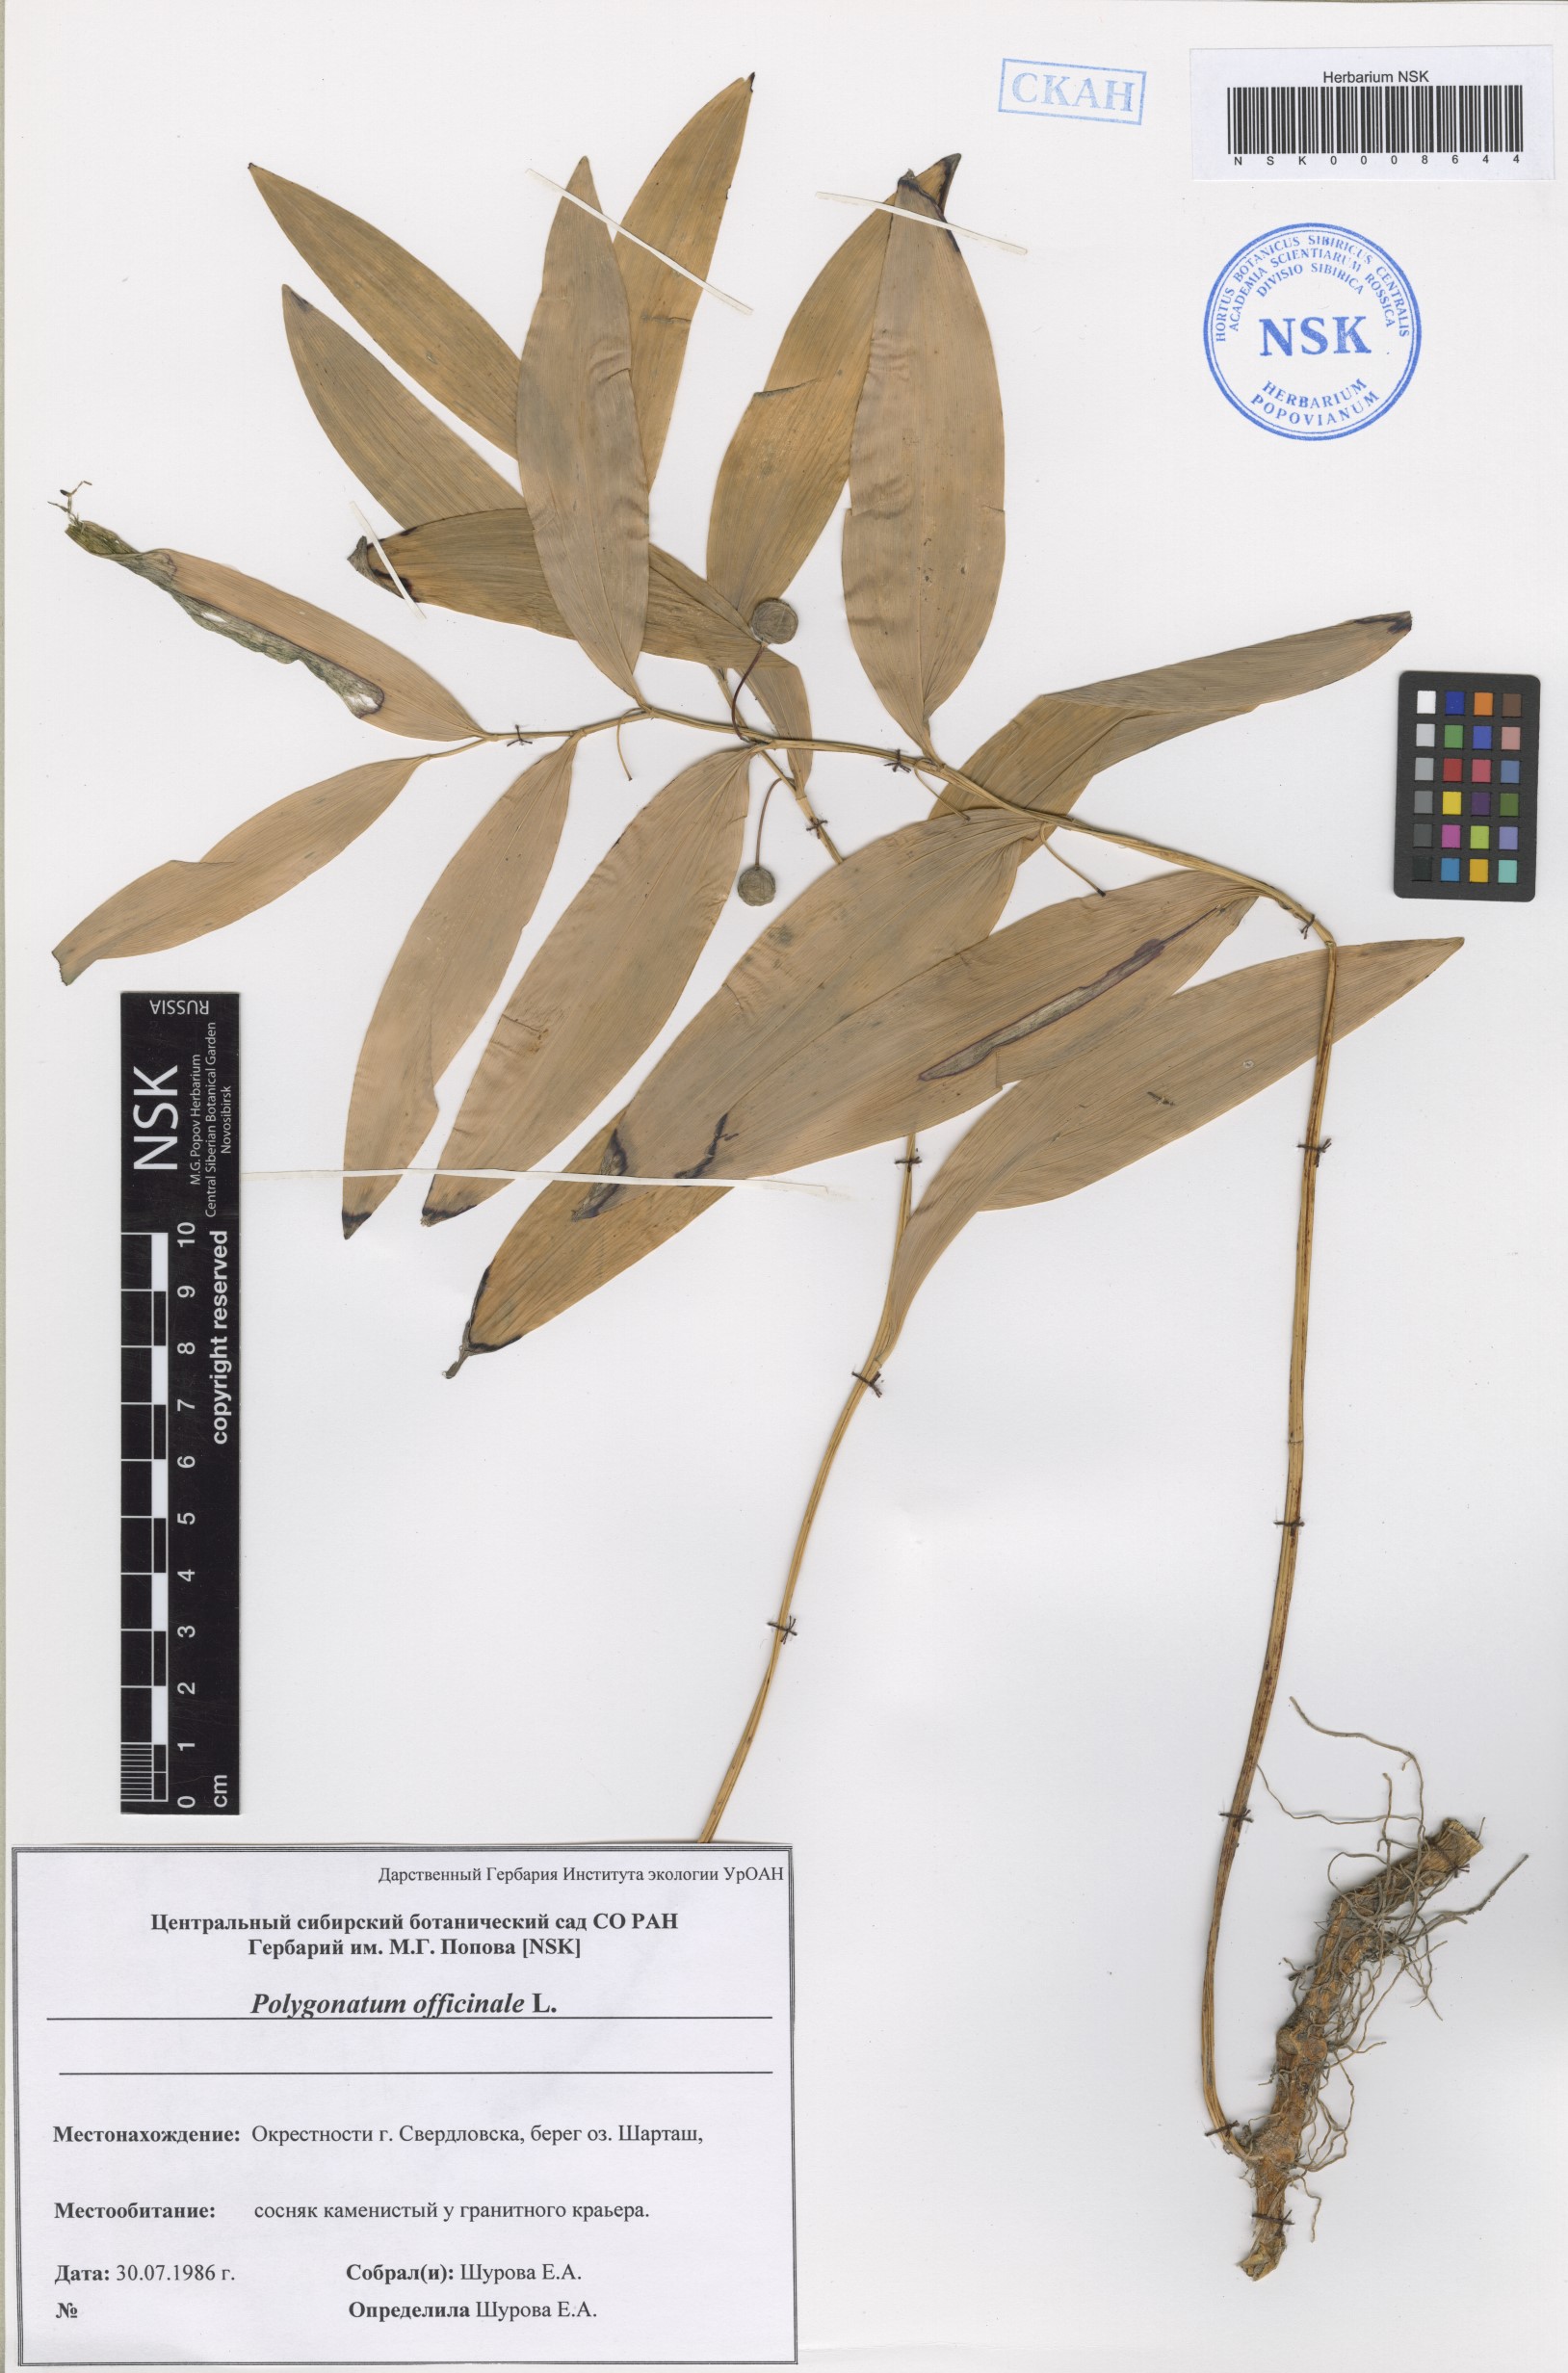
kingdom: Plantae
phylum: Tracheophyta
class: Liliopsida
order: Asparagales
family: Asparagaceae
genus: Polygonatum
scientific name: Polygonatum odoratum
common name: Angular solomon's-seal
